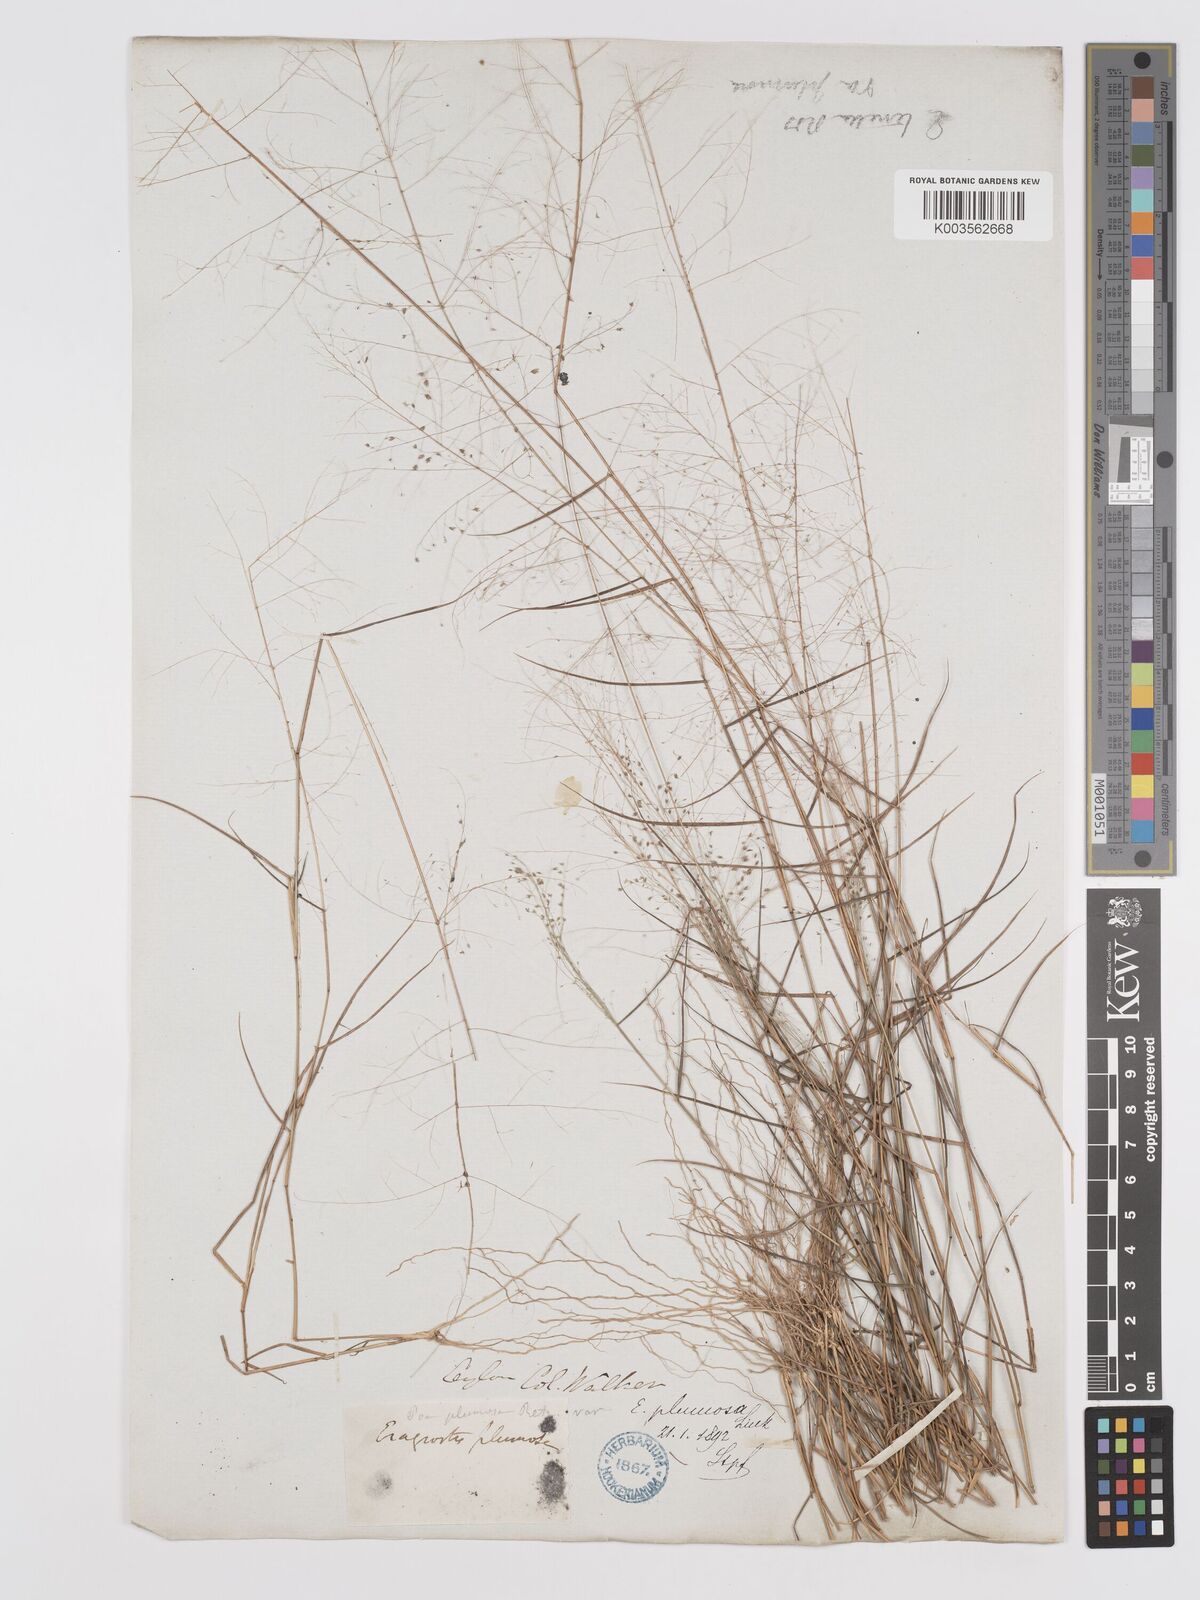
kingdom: Plantae
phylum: Tracheophyta
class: Liliopsida
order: Poales
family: Poaceae
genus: Eragrostis
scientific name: Eragrostis tenella
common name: Japanese lovegrass
